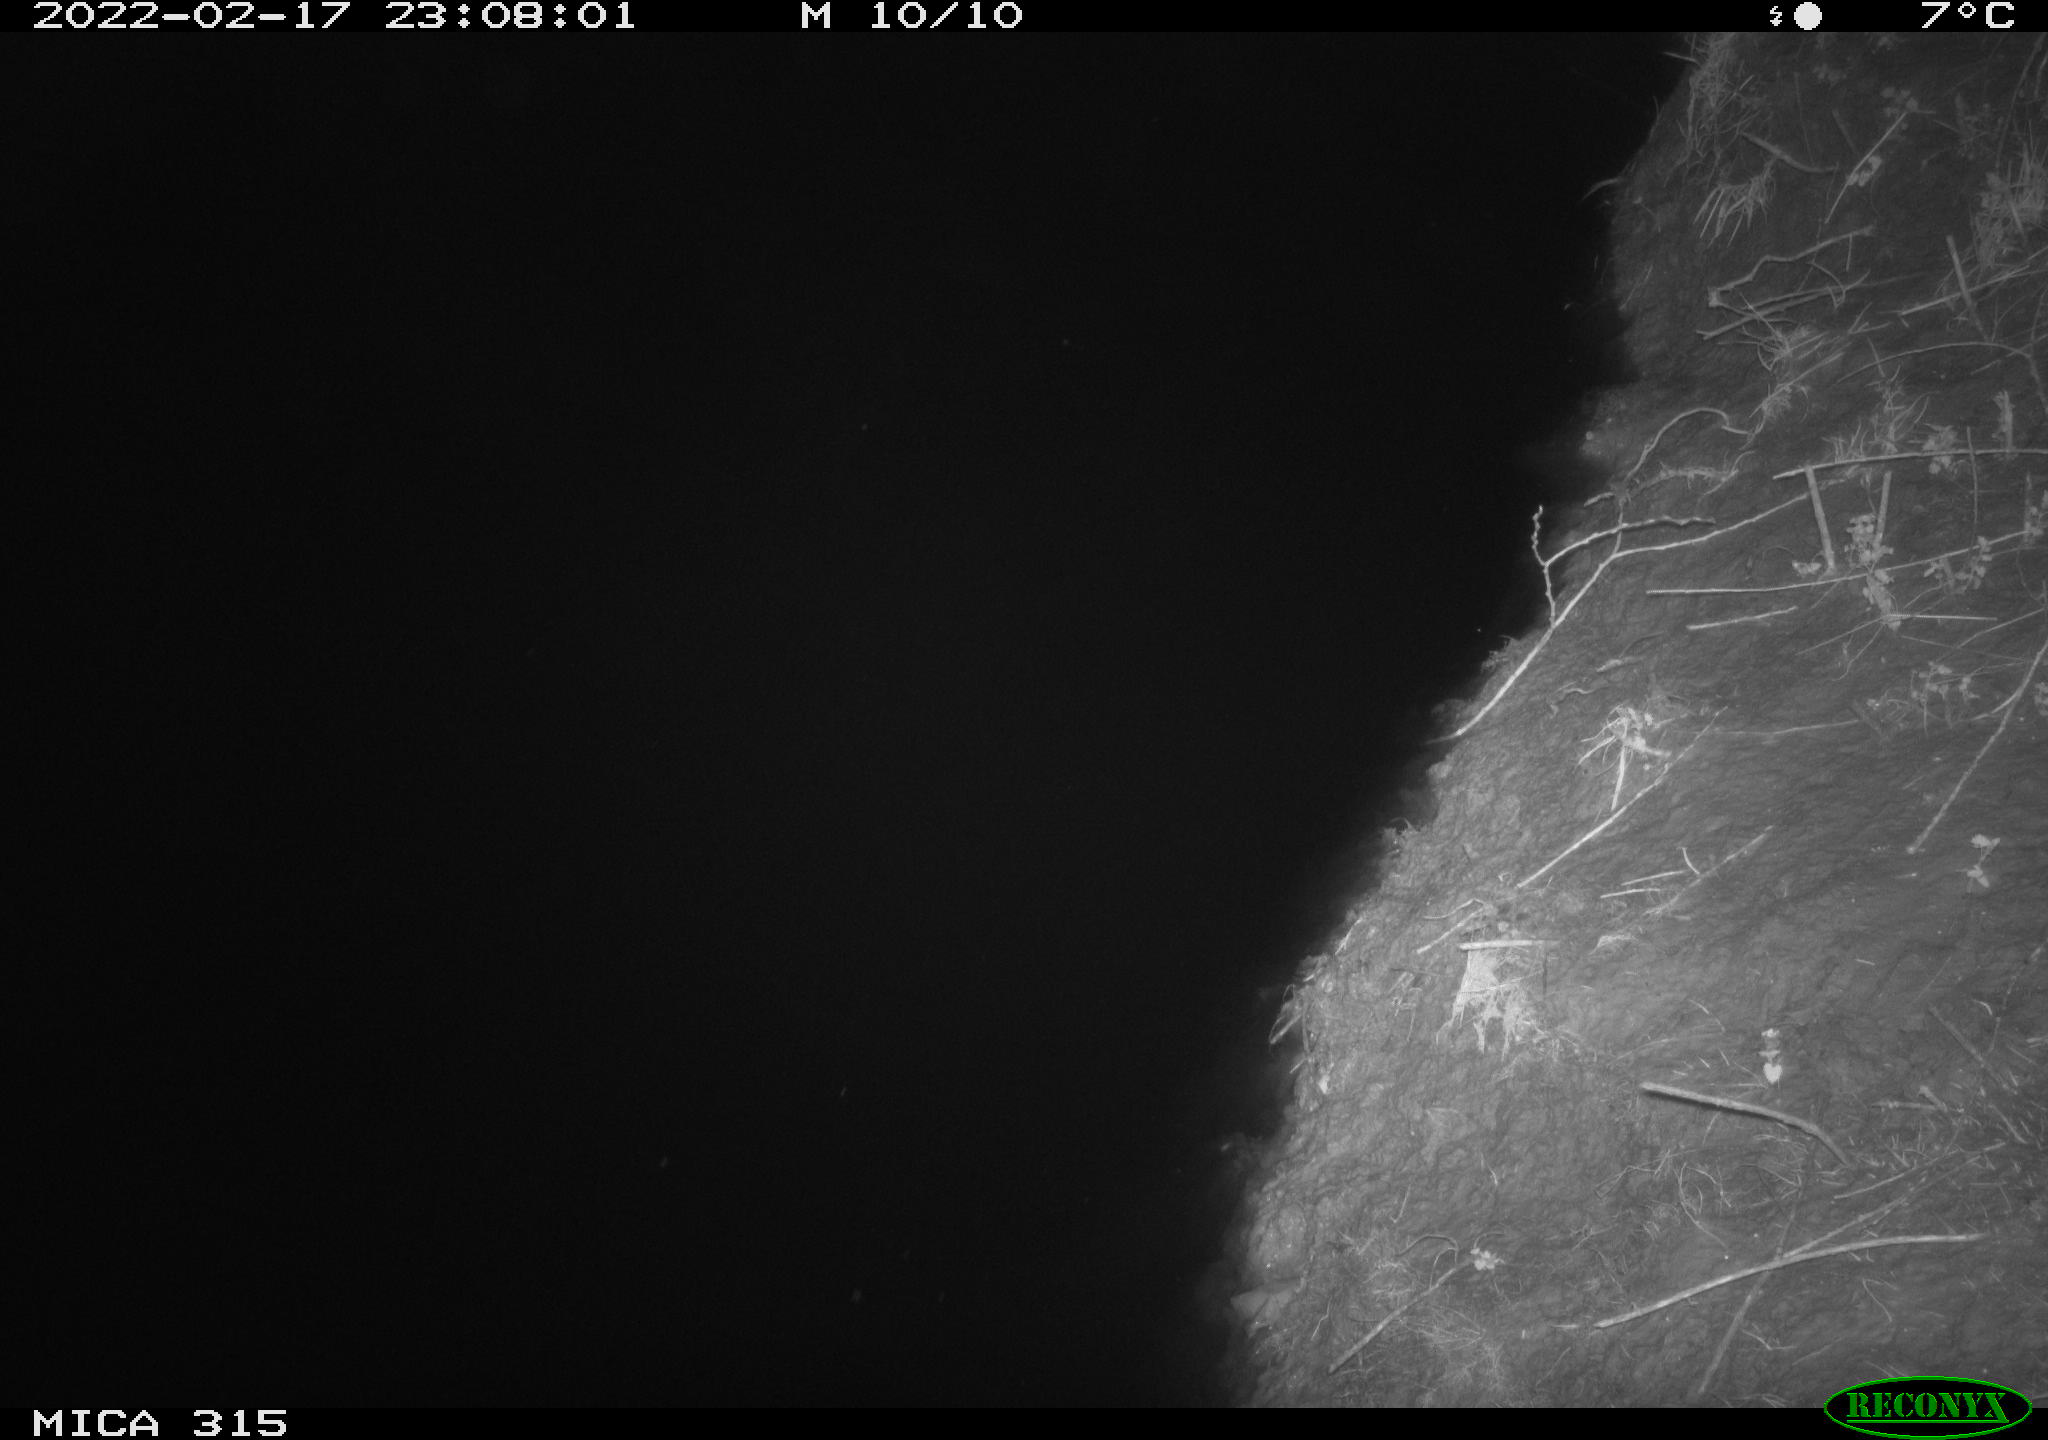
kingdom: Animalia
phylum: Chordata
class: Mammalia
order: Rodentia
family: Muridae
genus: Rattus
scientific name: Rattus norvegicus
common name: Brown rat
